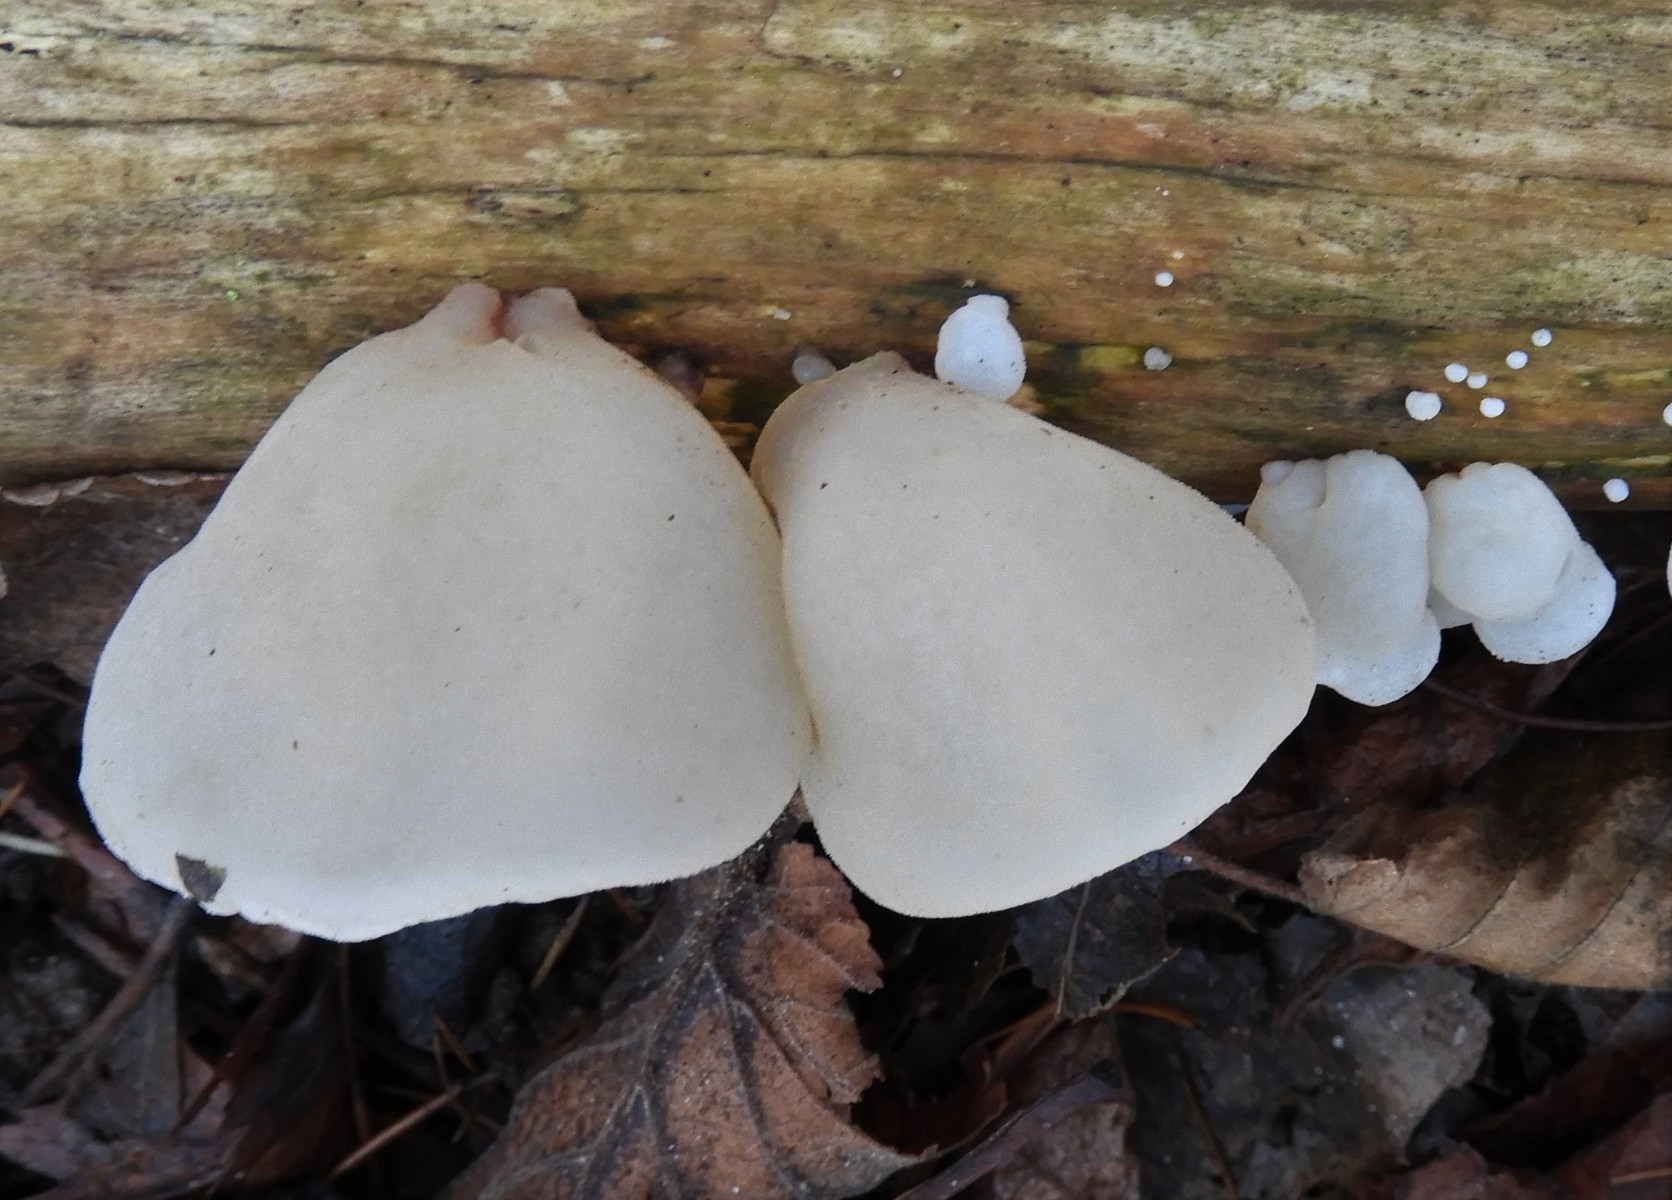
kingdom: Fungi
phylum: Basidiomycota
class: Agaricomycetes
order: Auriculariales
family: Auriculariaceae
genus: Auricularia
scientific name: Auricularia auricula-judae
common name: almindelig judasøre
